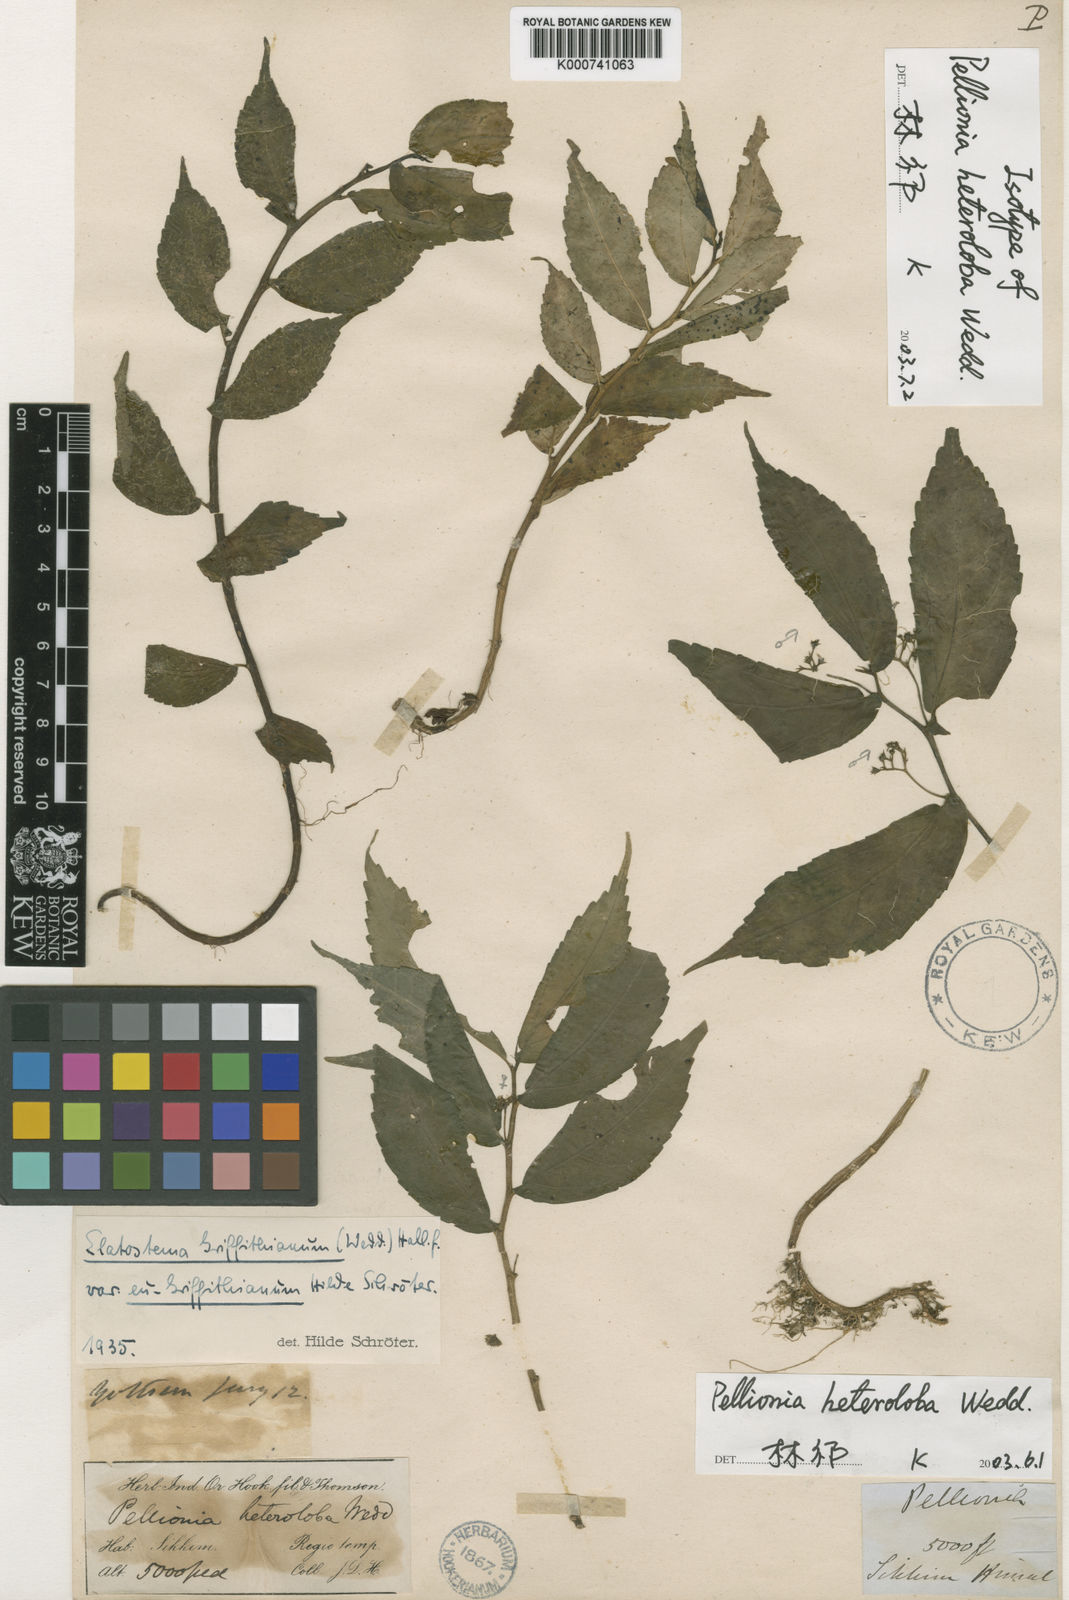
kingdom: Plantae
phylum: Tracheophyta
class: Magnoliopsida
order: Rosales
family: Urticaceae
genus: Elatostema
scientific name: Elatostema heterolobum
